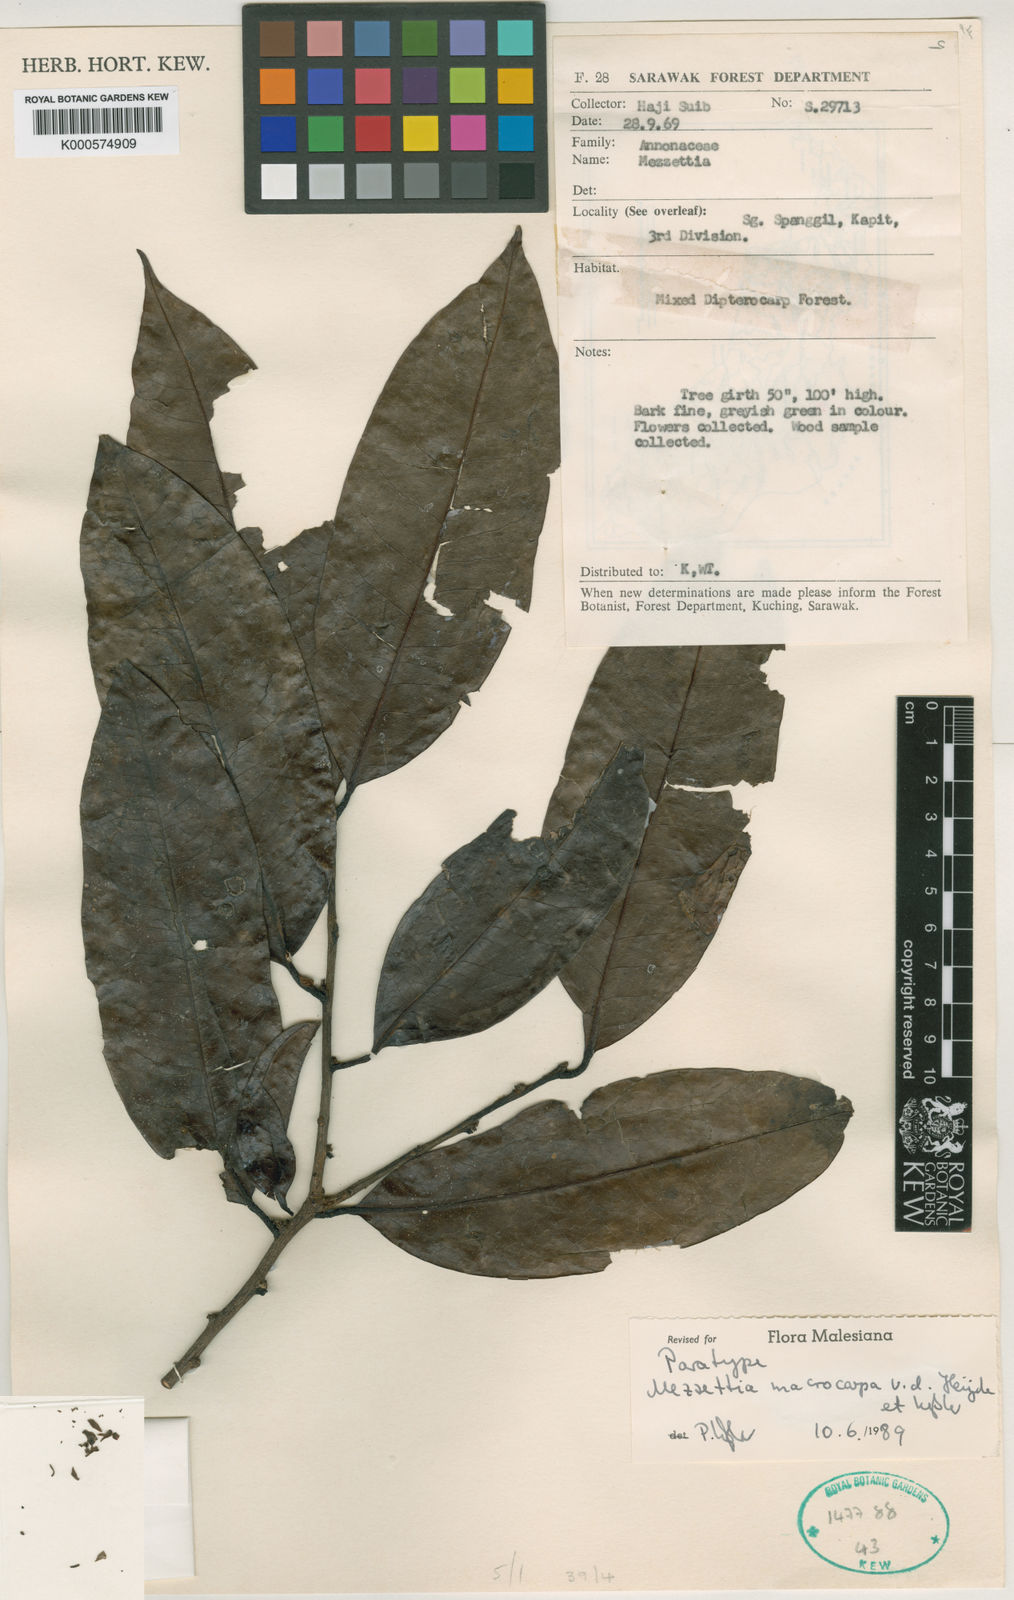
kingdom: Plantae
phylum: Tracheophyta
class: Magnoliopsida
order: Magnoliales
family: Annonaceae
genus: Mezzettia
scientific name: Mezzettia
